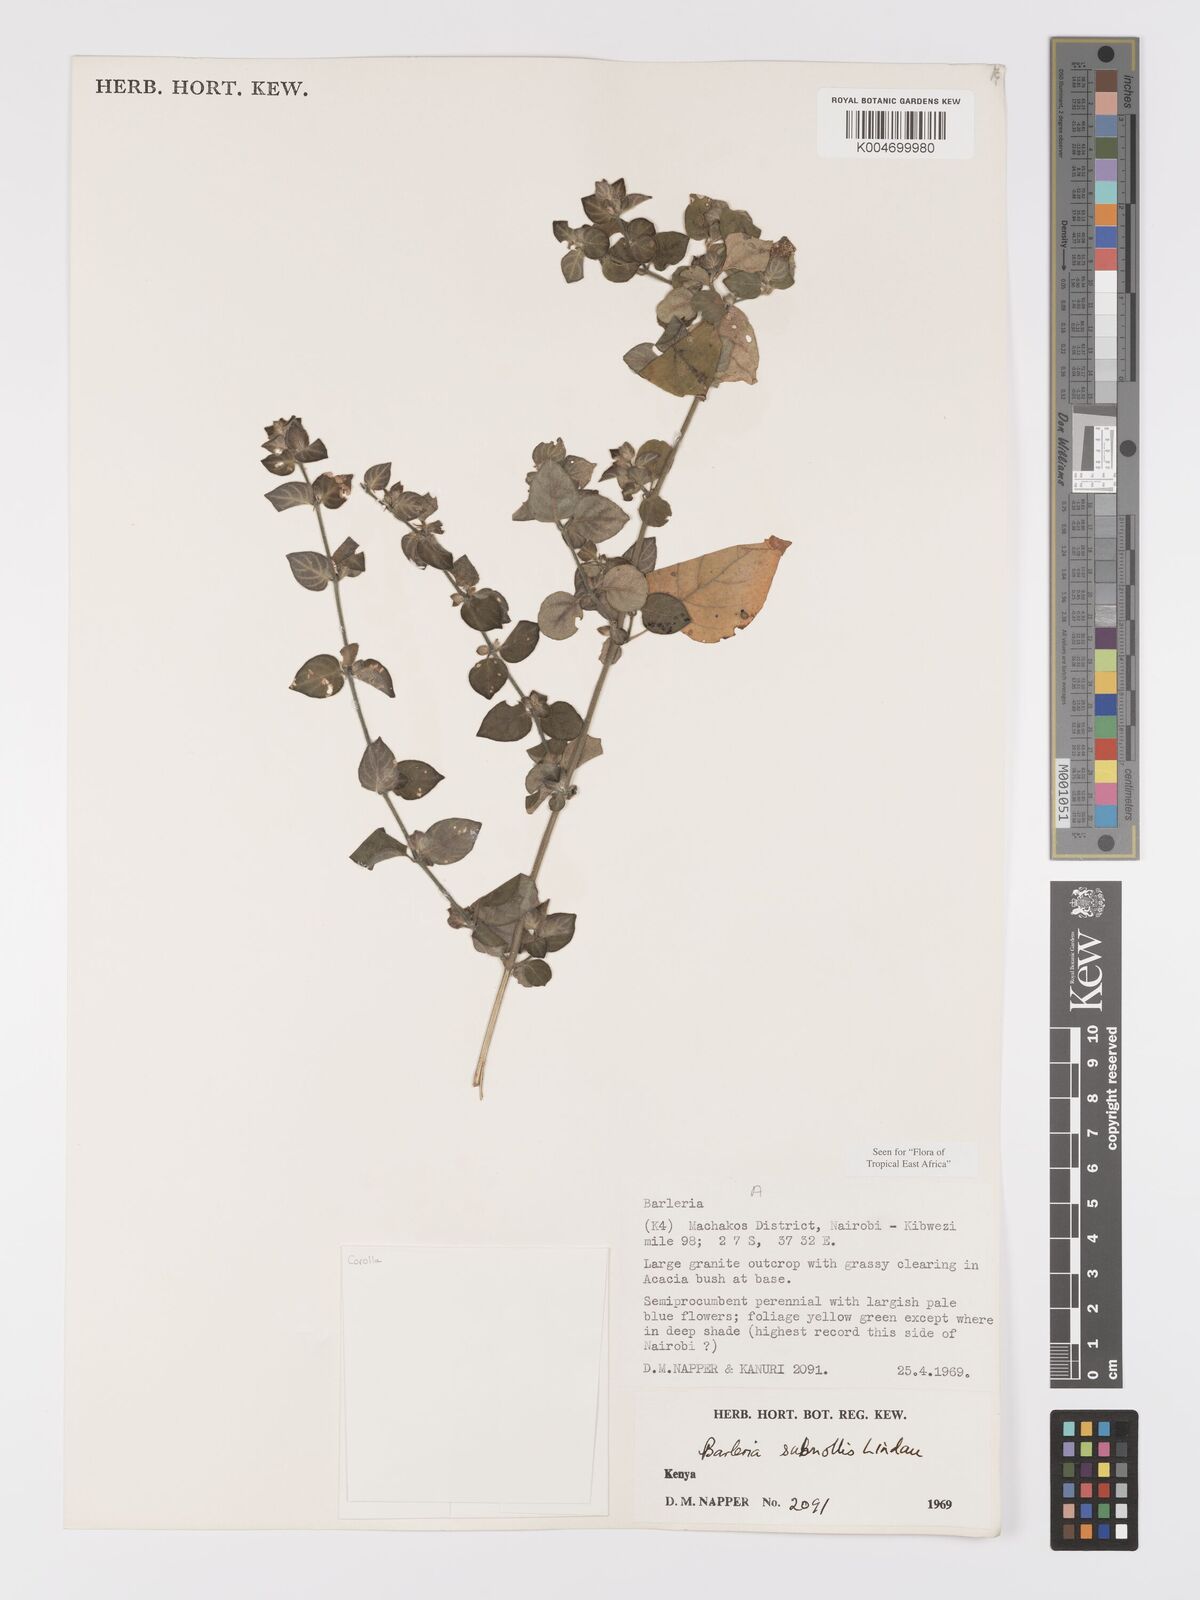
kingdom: Plantae
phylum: Tracheophyta
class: Magnoliopsida
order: Lamiales
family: Acanthaceae
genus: Barleria
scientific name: Barleria submollis
